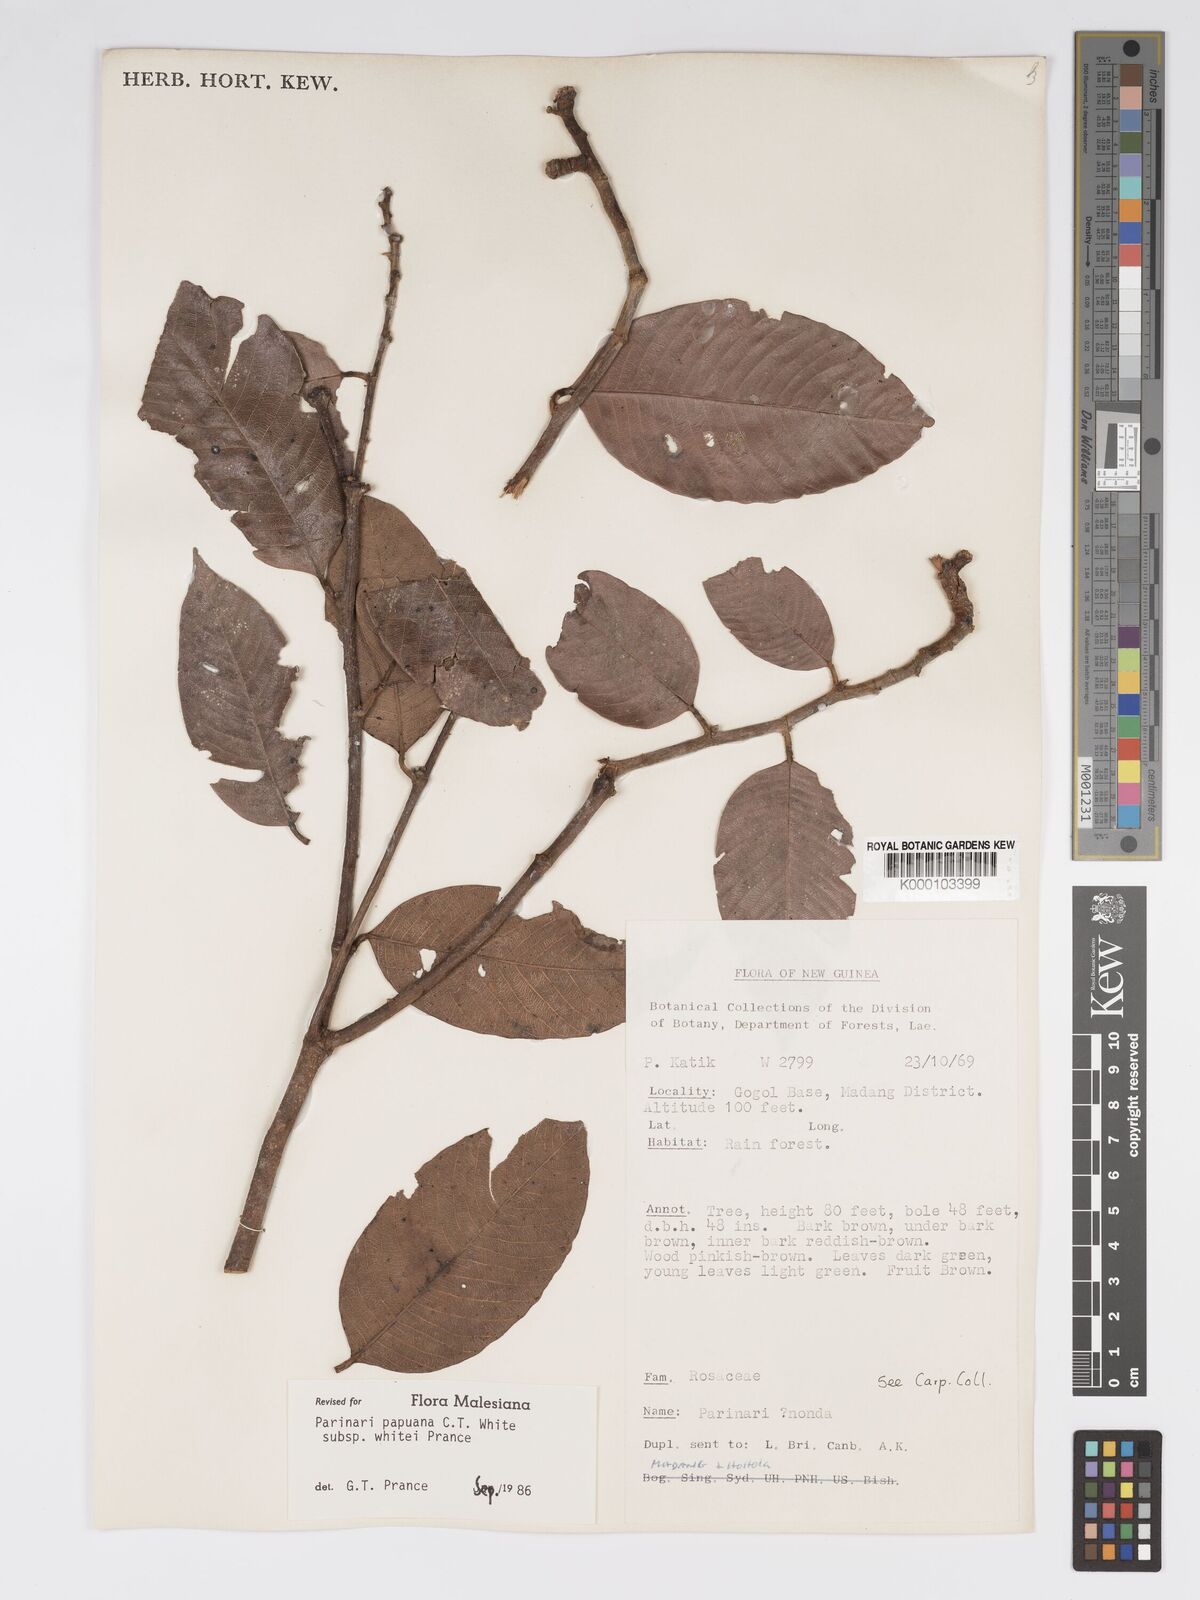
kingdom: Plantae
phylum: Tracheophyta
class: Magnoliopsida
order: Malpighiales
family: Chrysobalanaceae
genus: Parinari
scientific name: Parinari papuana
